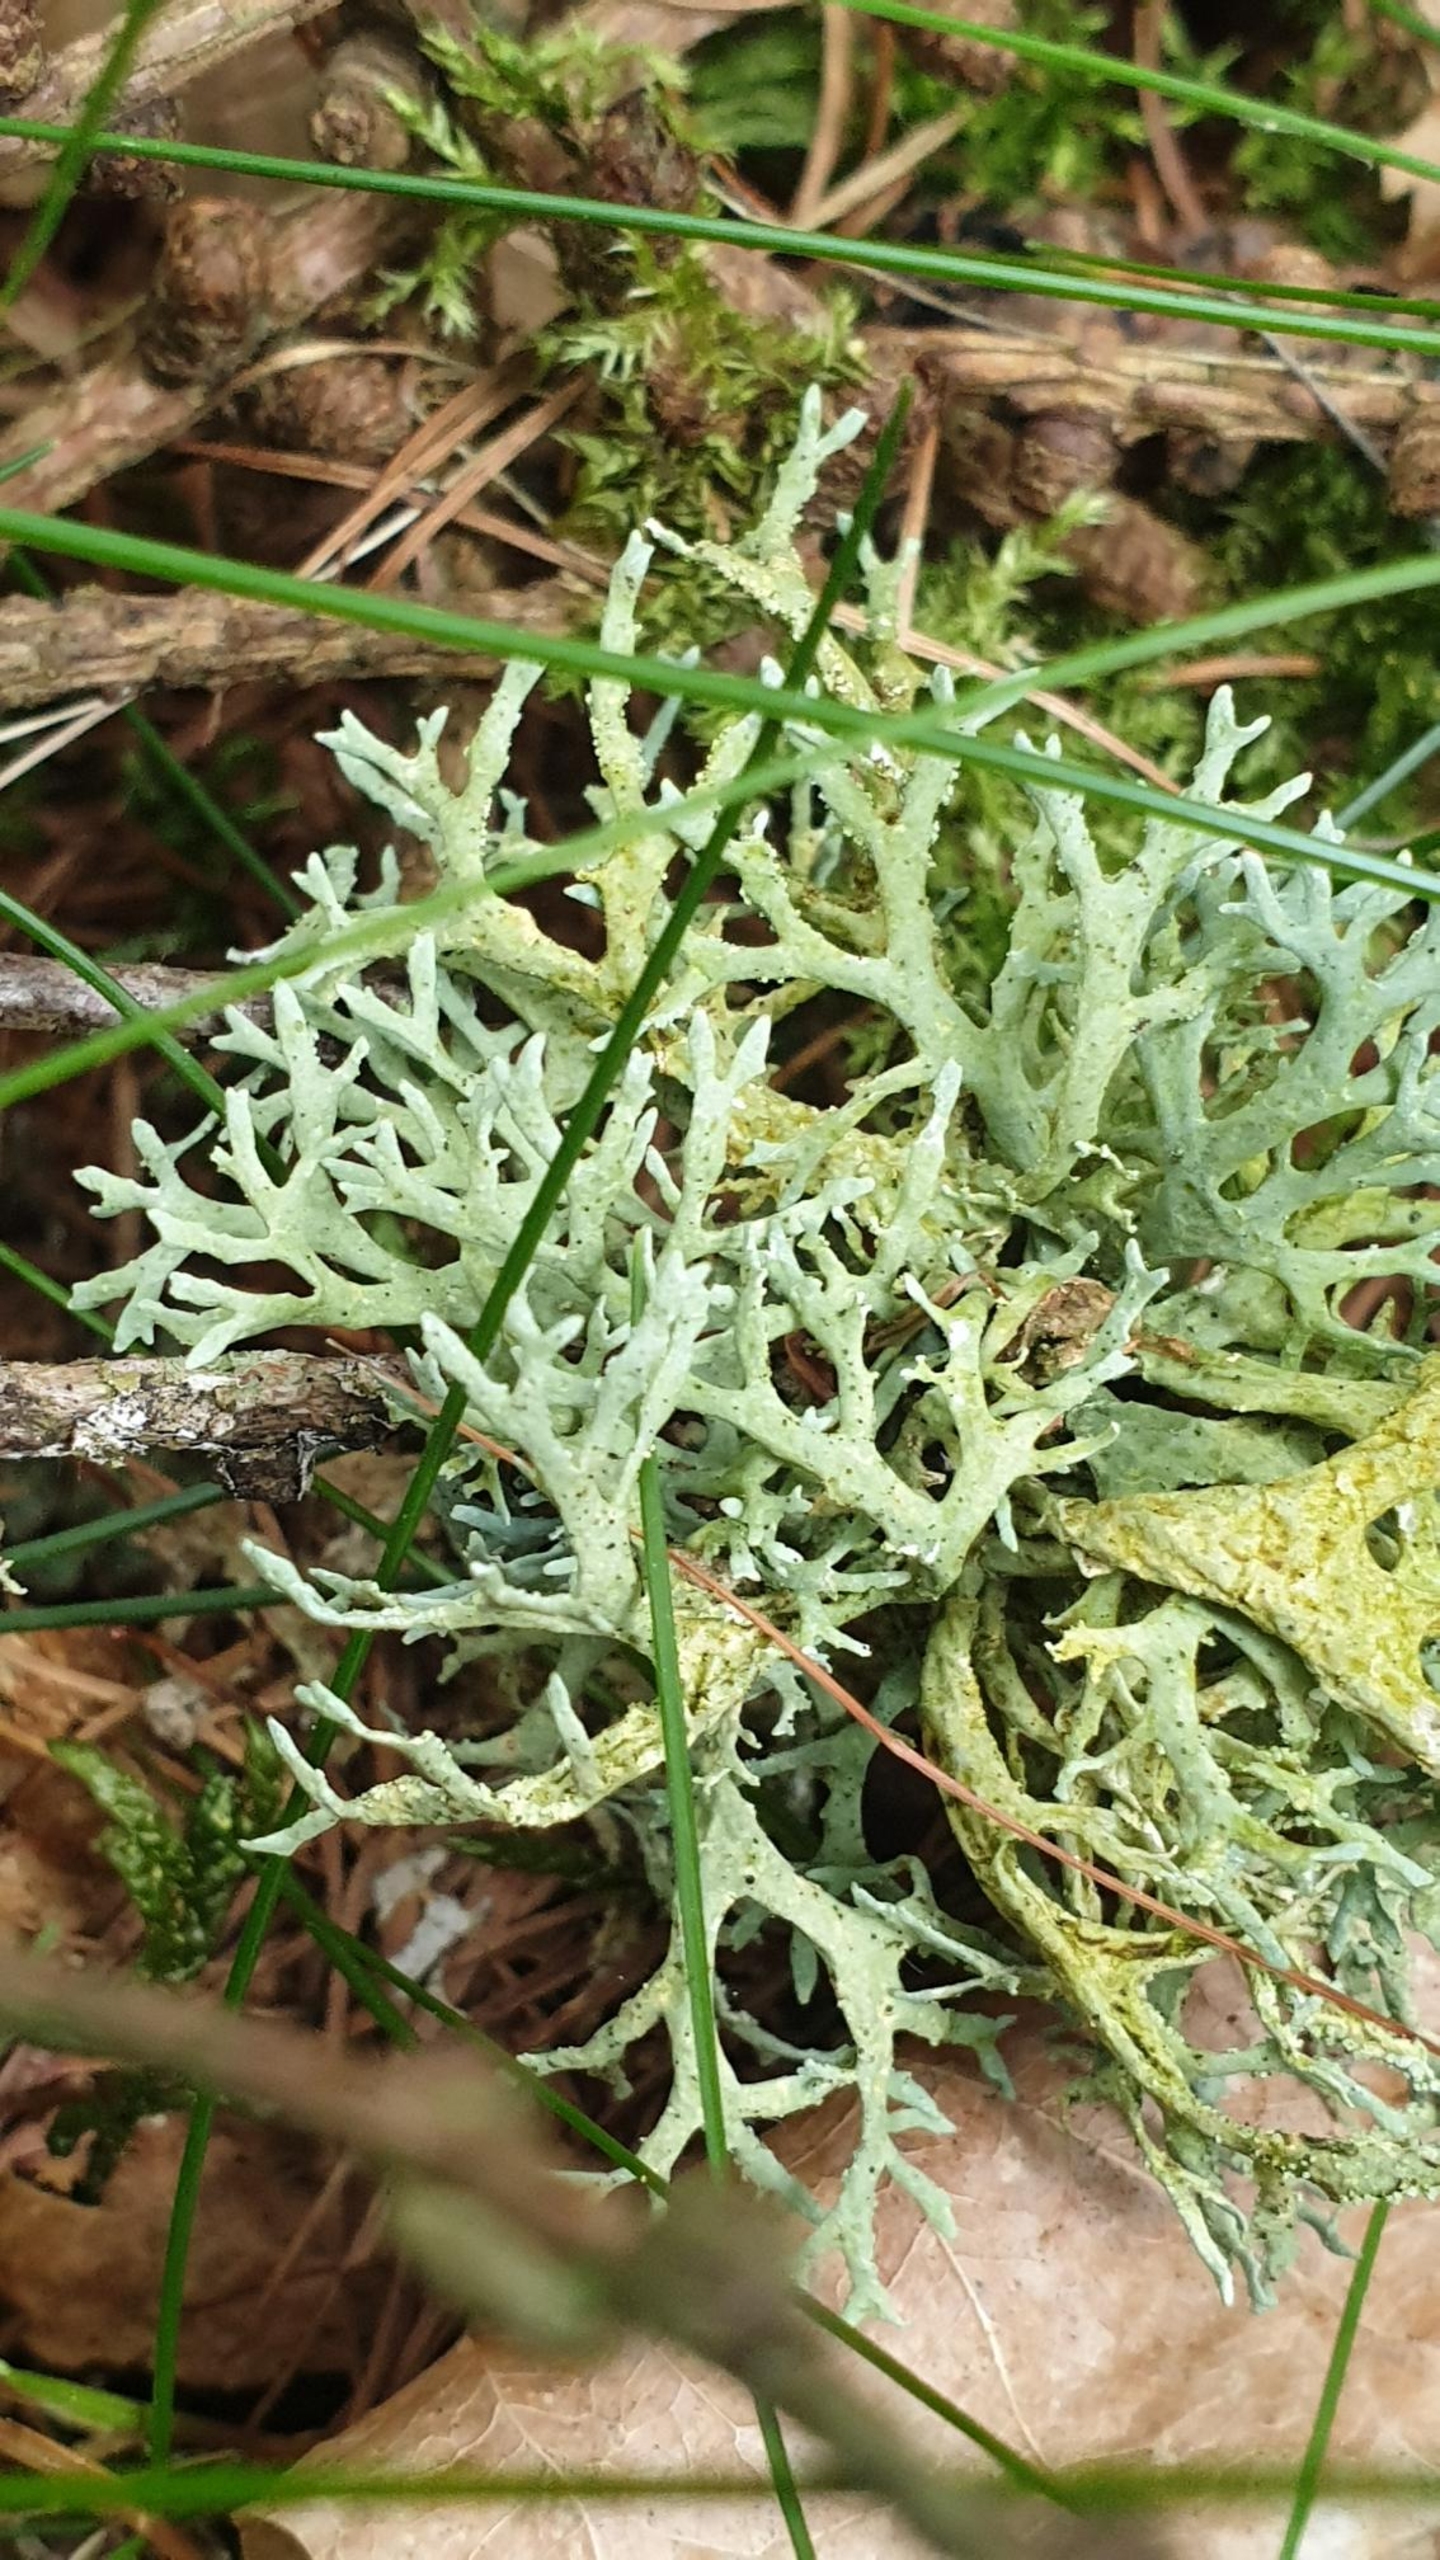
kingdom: Fungi
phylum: Ascomycota
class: Lecanoromycetes
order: Lecanorales
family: Parmeliaceae
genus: Evernia
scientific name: Evernia prunastri
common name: Almindelig slåenlav
